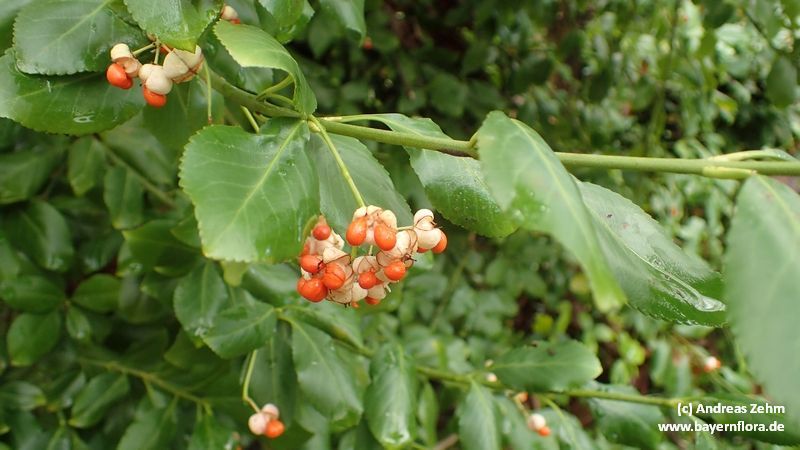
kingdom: Plantae
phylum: Tracheophyta
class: Magnoliopsida
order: Celastrales
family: Celastraceae
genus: Euonymus
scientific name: Euonymus fortunei
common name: Climbing euonymus
